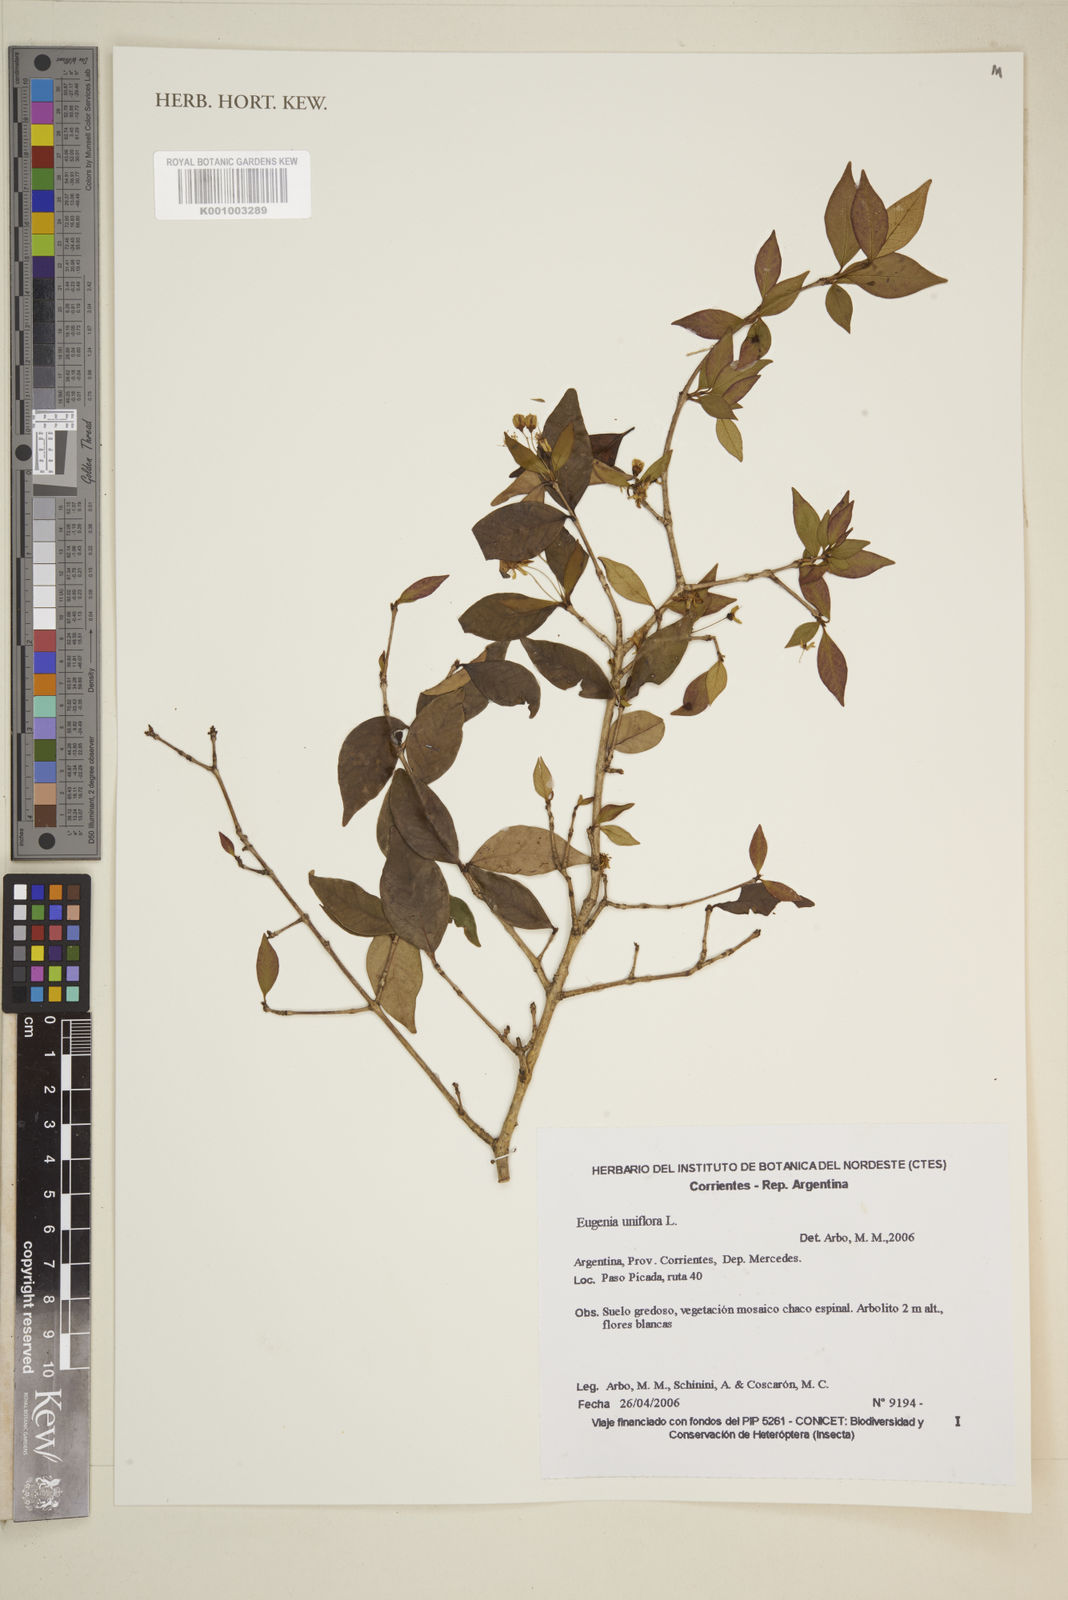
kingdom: Plantae
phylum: Tracheophyta
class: Magnoliopsida
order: Myrtales
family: Myrtaceae
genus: Eugenia
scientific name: Eugenia
